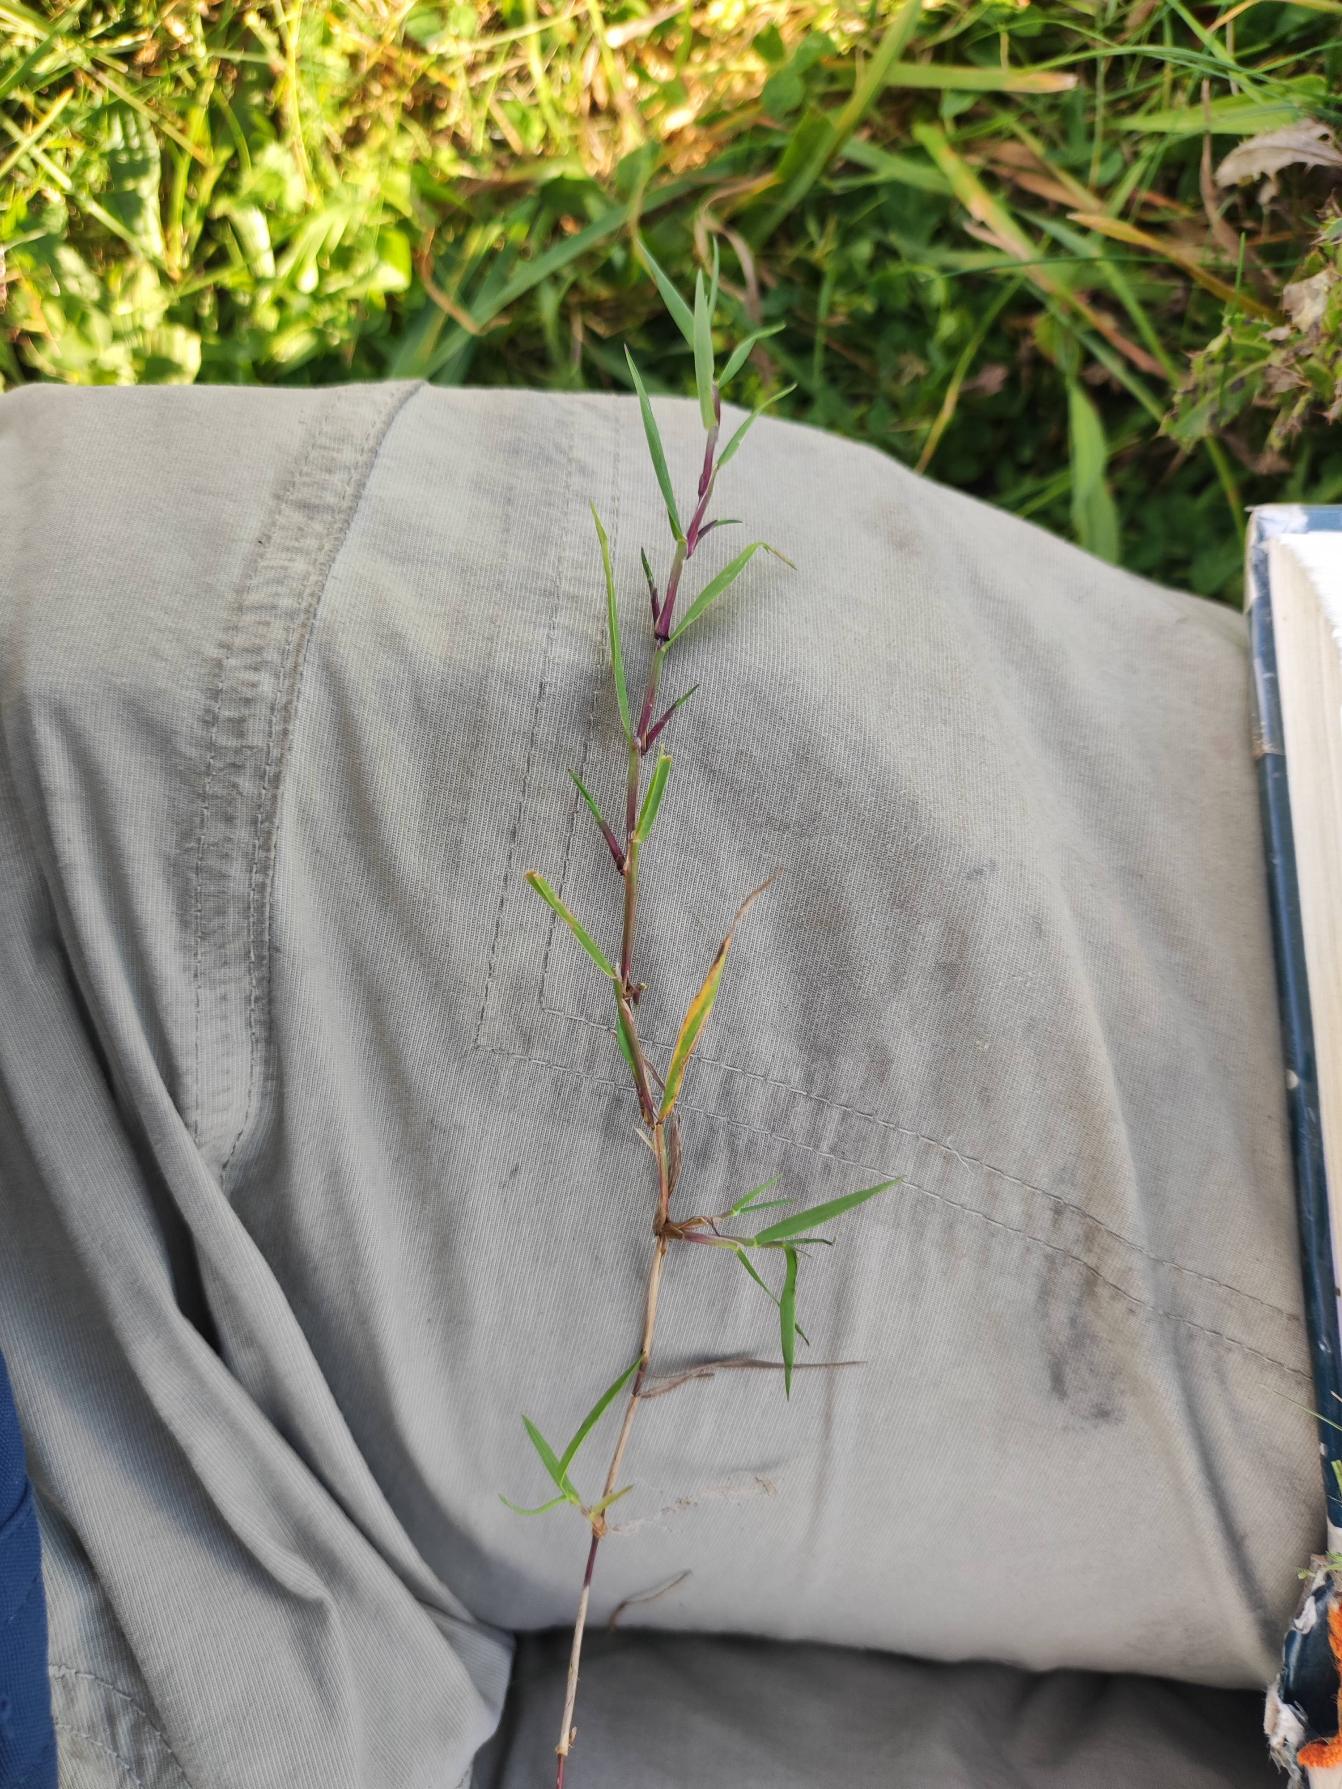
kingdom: Plantae
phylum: Tracheophyta
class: Liliopsida
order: Poales
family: Poaceae
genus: Agrostis
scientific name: Agrostis stolonifera
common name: Kryb-hvene
